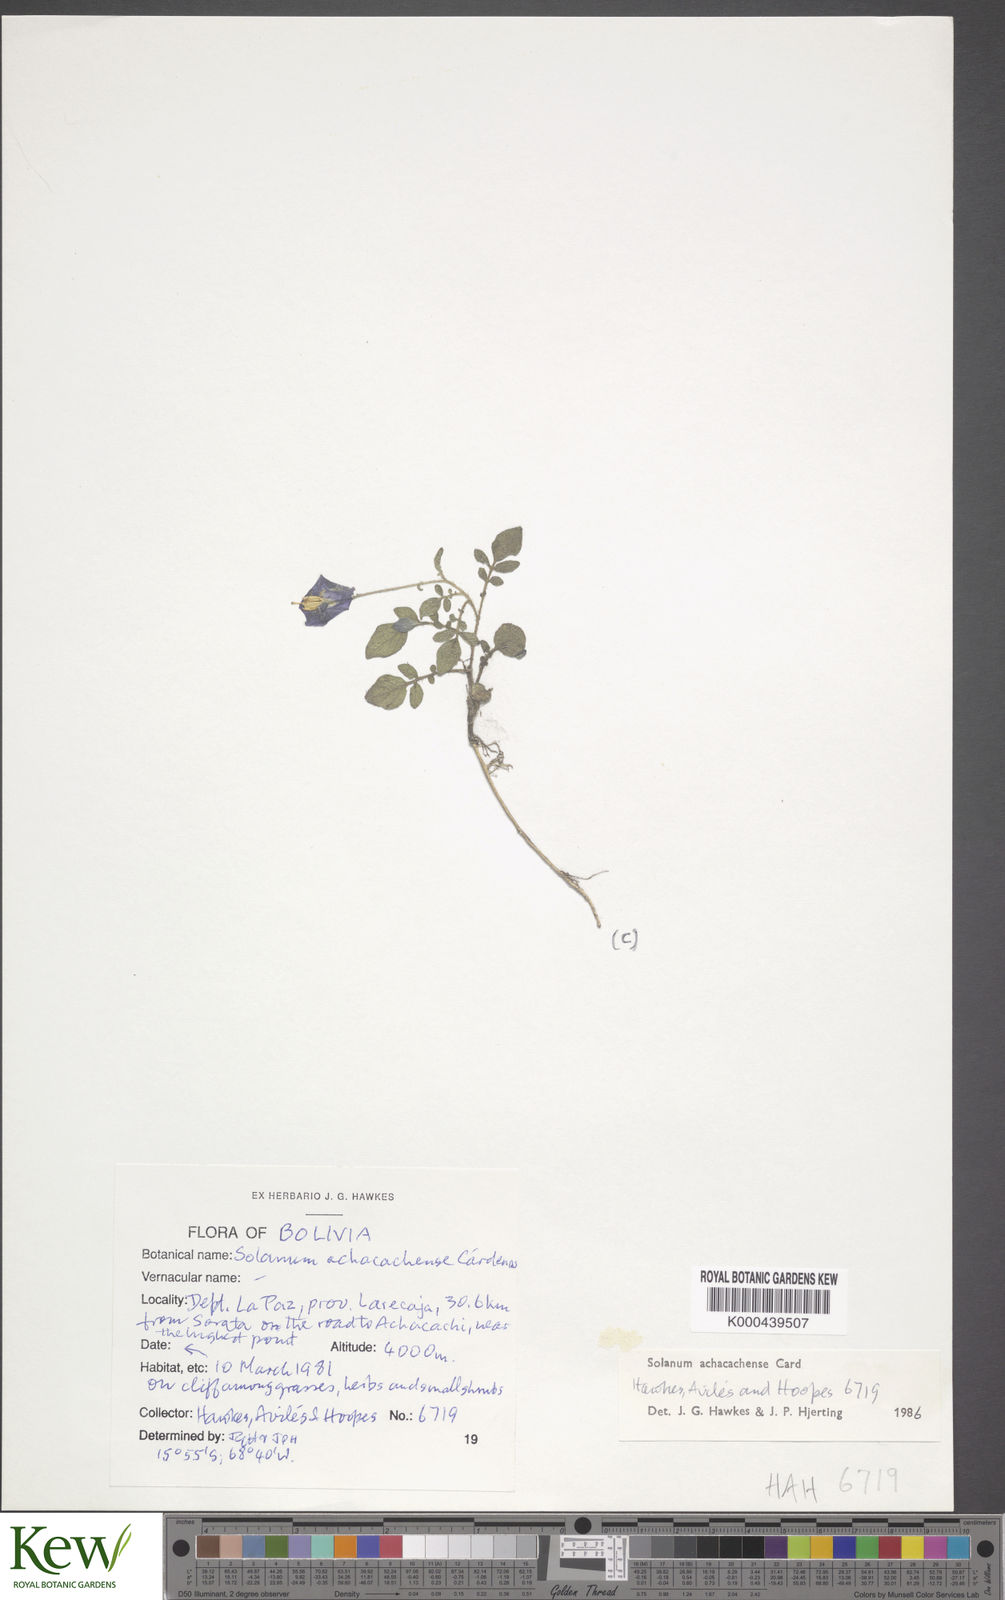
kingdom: Plantae
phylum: Tracheophyta
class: Magnoliopsida
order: Solanales
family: Solanaceae
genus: Solanum
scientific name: Solanum brevicaule
